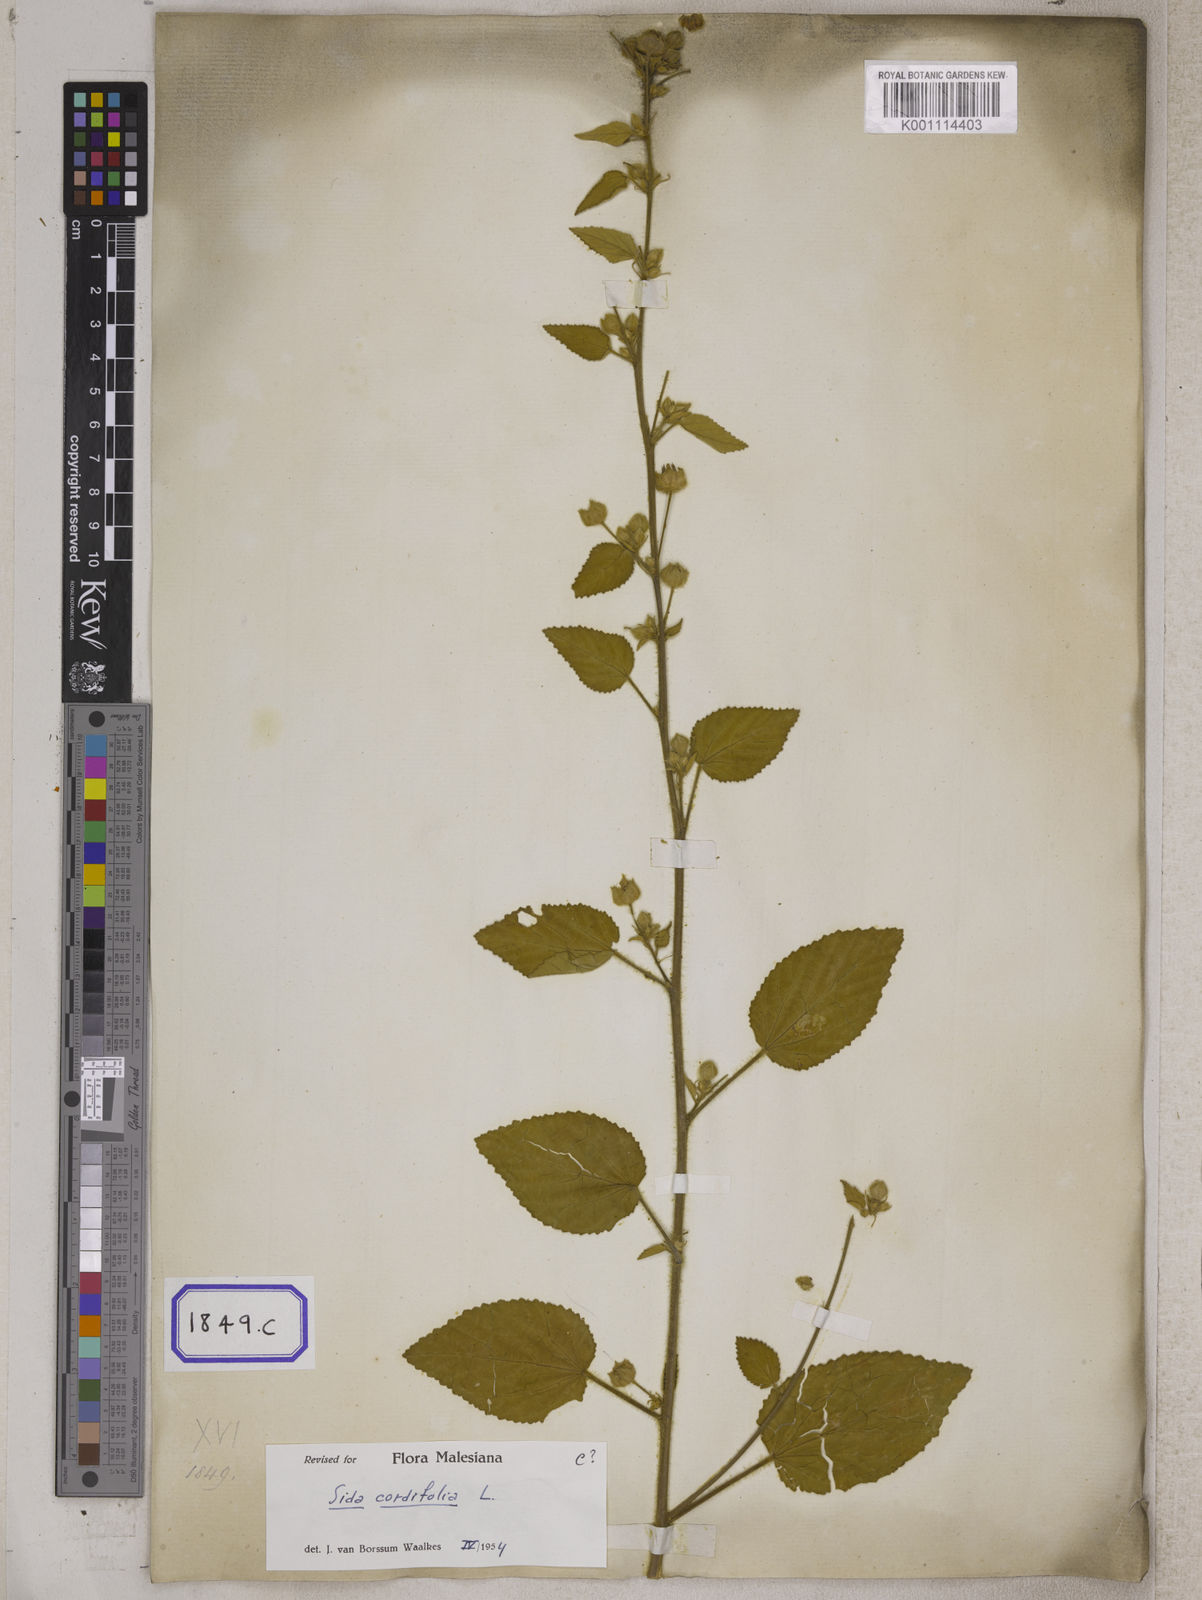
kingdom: Plantae
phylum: Tracheophyta
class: Magnoliopsida
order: Malvales
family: Malvaceae
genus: Sida
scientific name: Sida cordifolia
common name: Ilima
